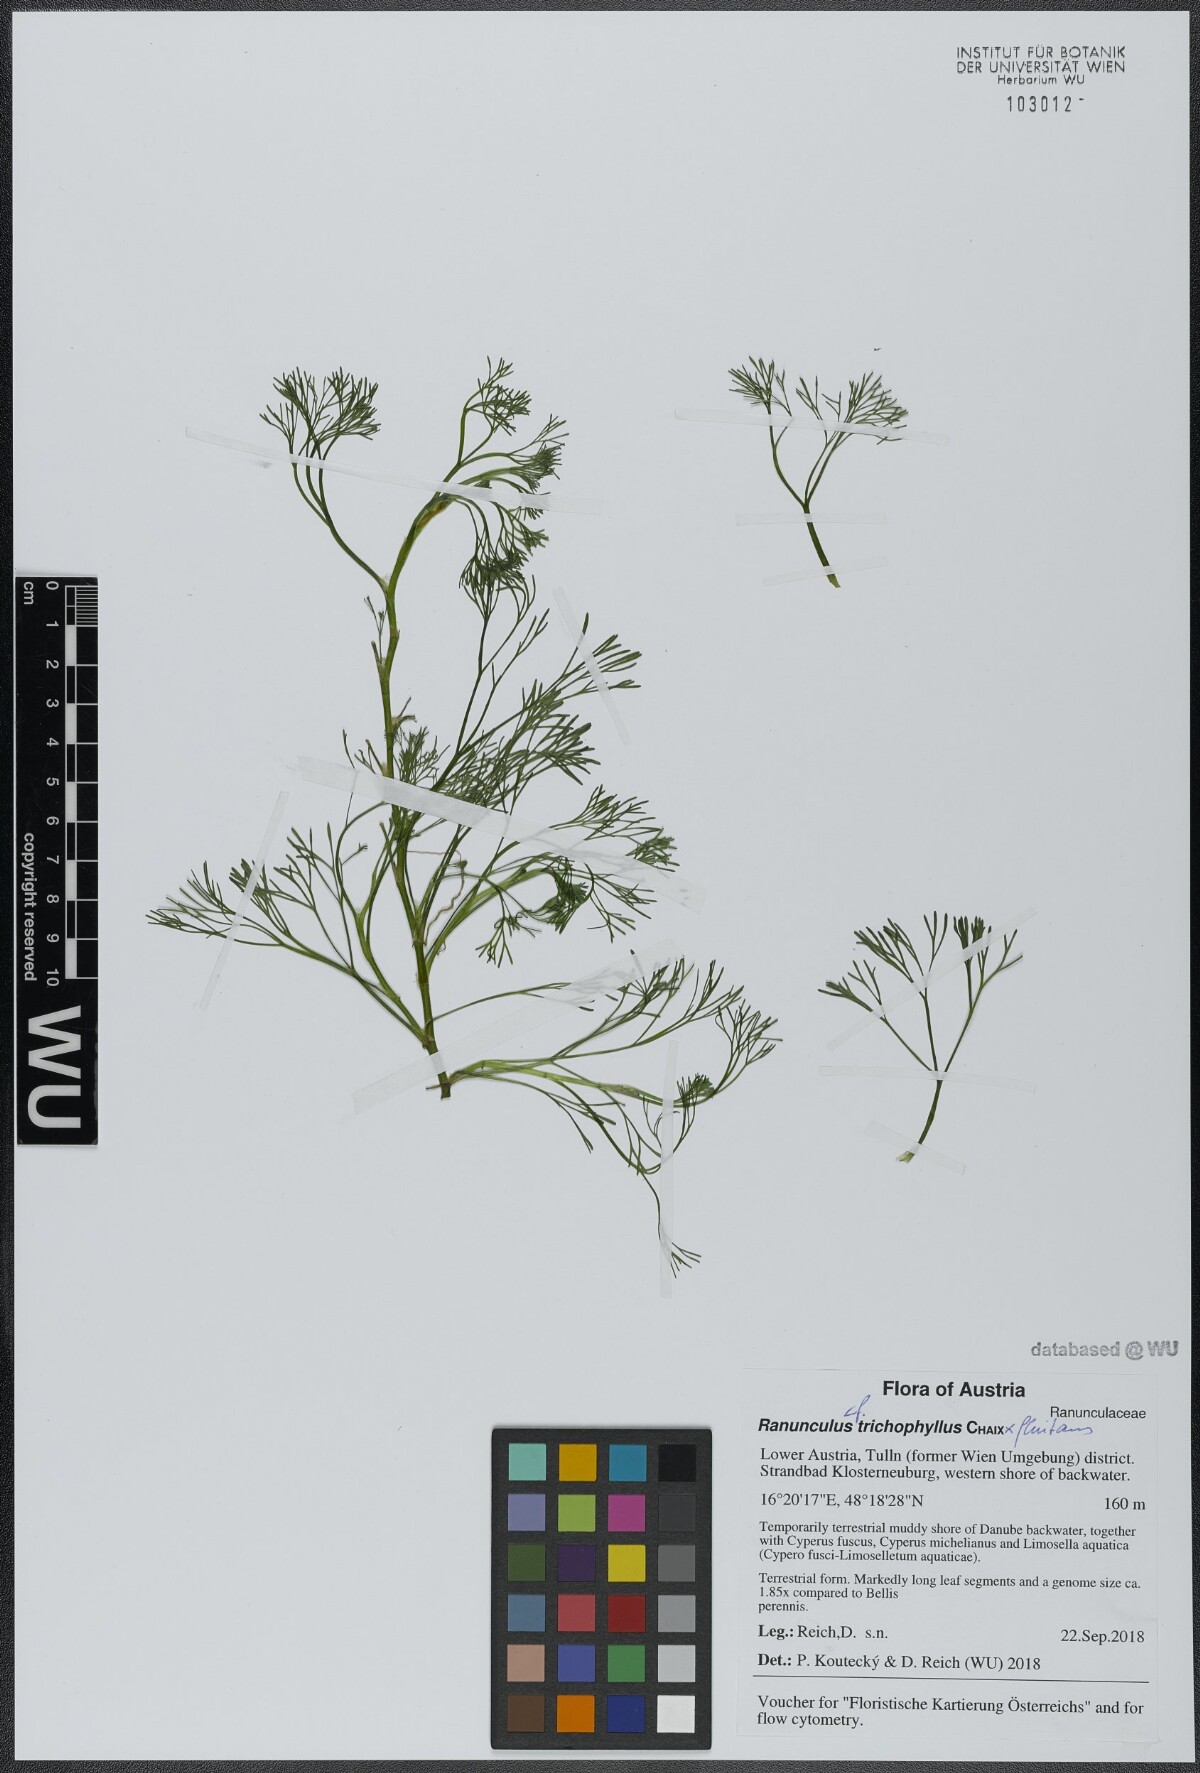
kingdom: Plantae
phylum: Tracheophyta
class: Magnoliopsida
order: Ranunculales
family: Ranunculaceae
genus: Ranunculus
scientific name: Ranunculus trichophyllus
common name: Thread-leaved water-crowfoot
